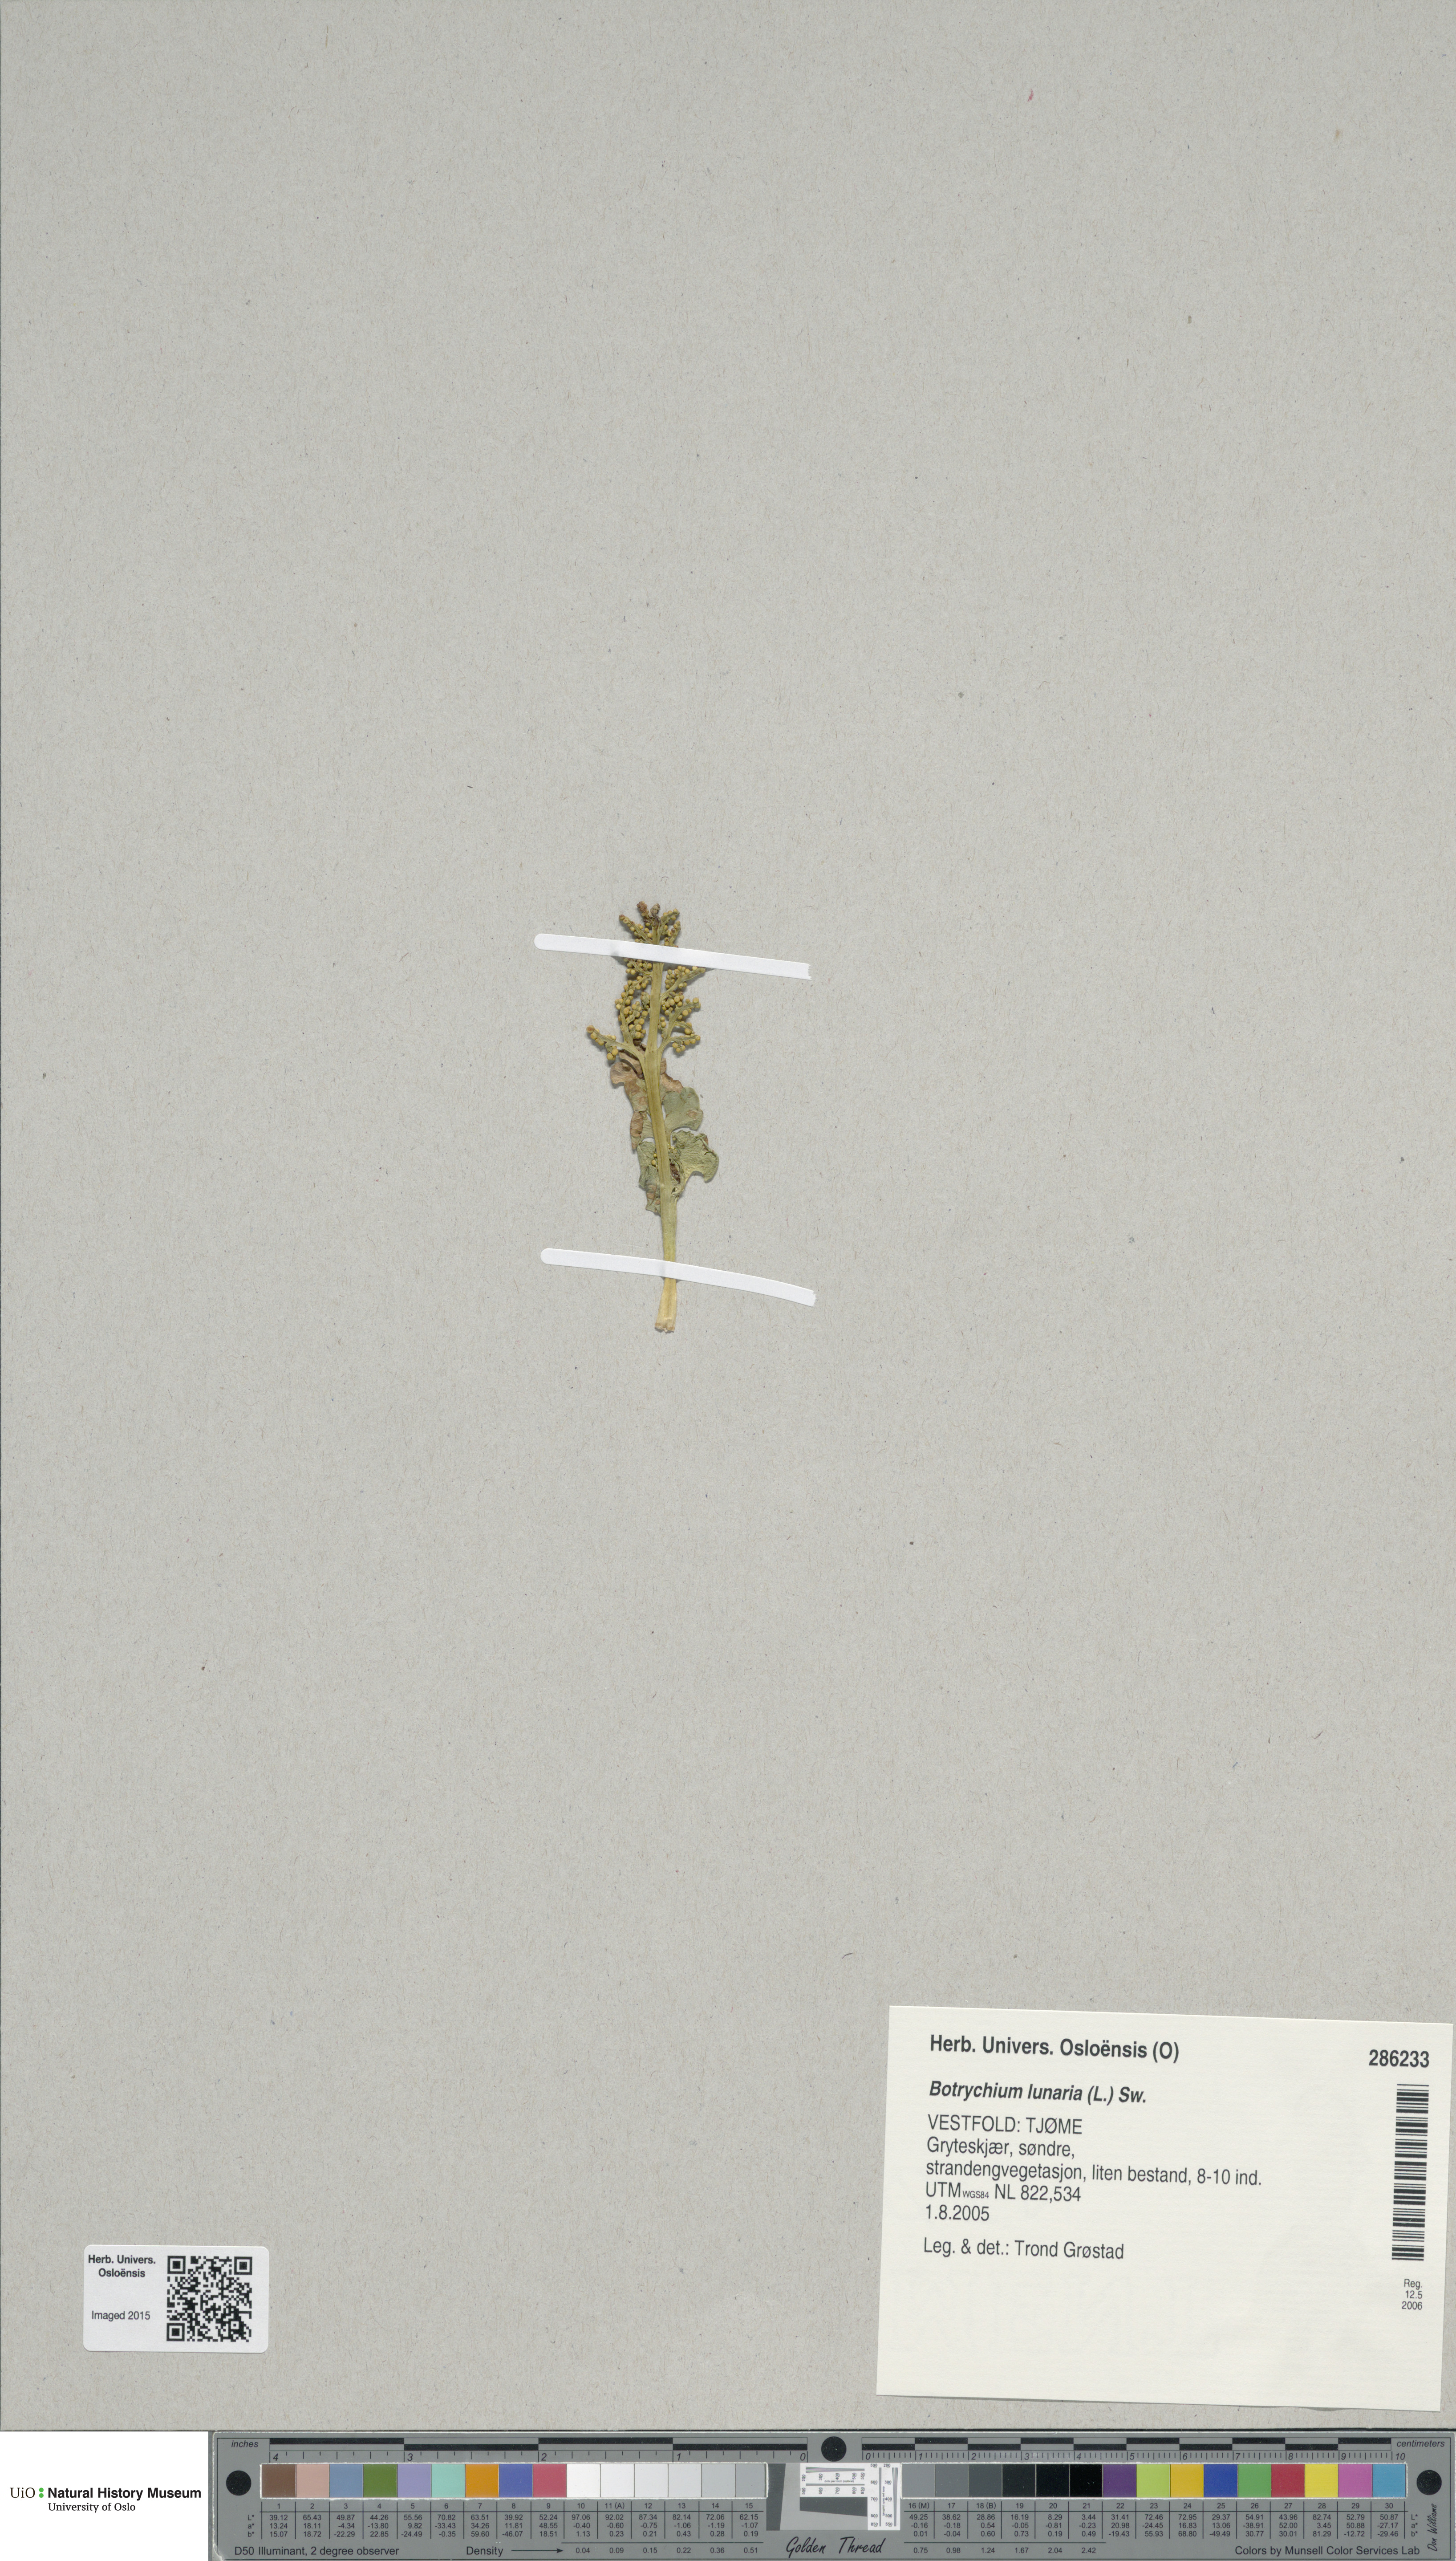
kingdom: Plantae
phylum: Tracheophyta
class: Polypodiopsida
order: Ophioglossales
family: Ophioglossaceae
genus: Botrychium
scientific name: Botrychium lunaria
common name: Moonwort
